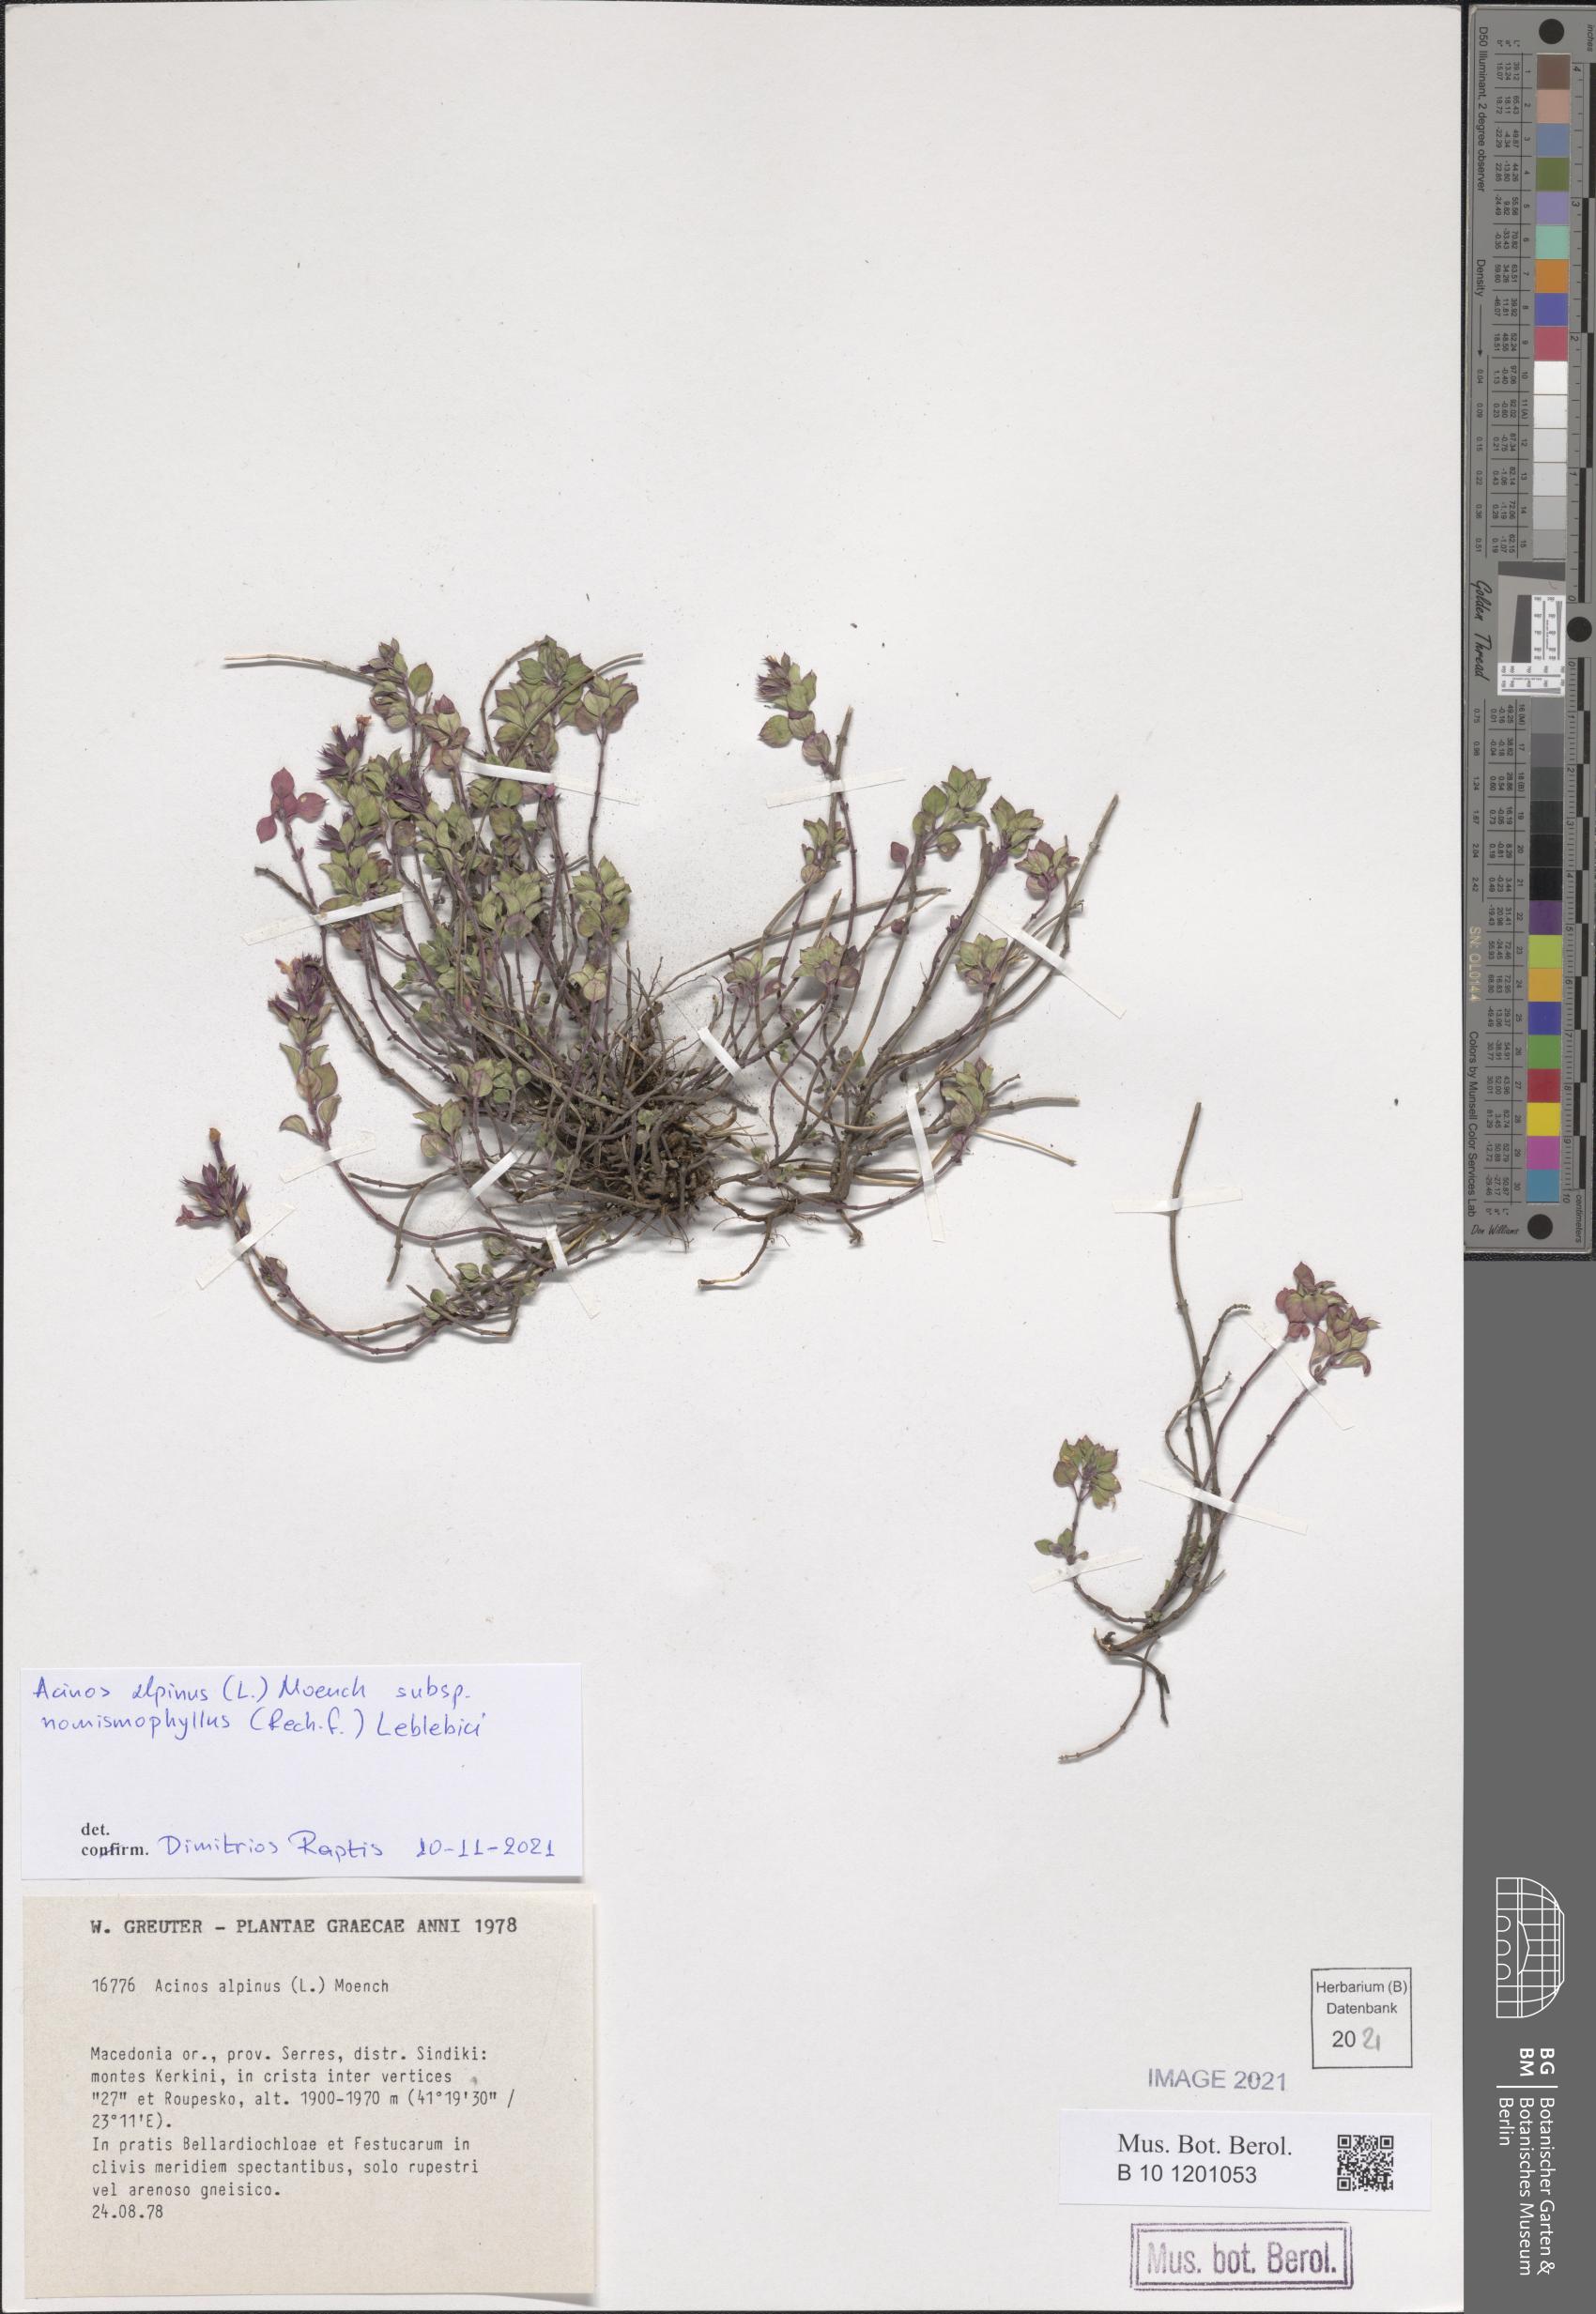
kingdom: Plantae
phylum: Tracheophyta
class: Magnoliopsida
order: Lamiales
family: Lamiaceae
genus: Clinopodium
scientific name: Clinopodium alpinum
